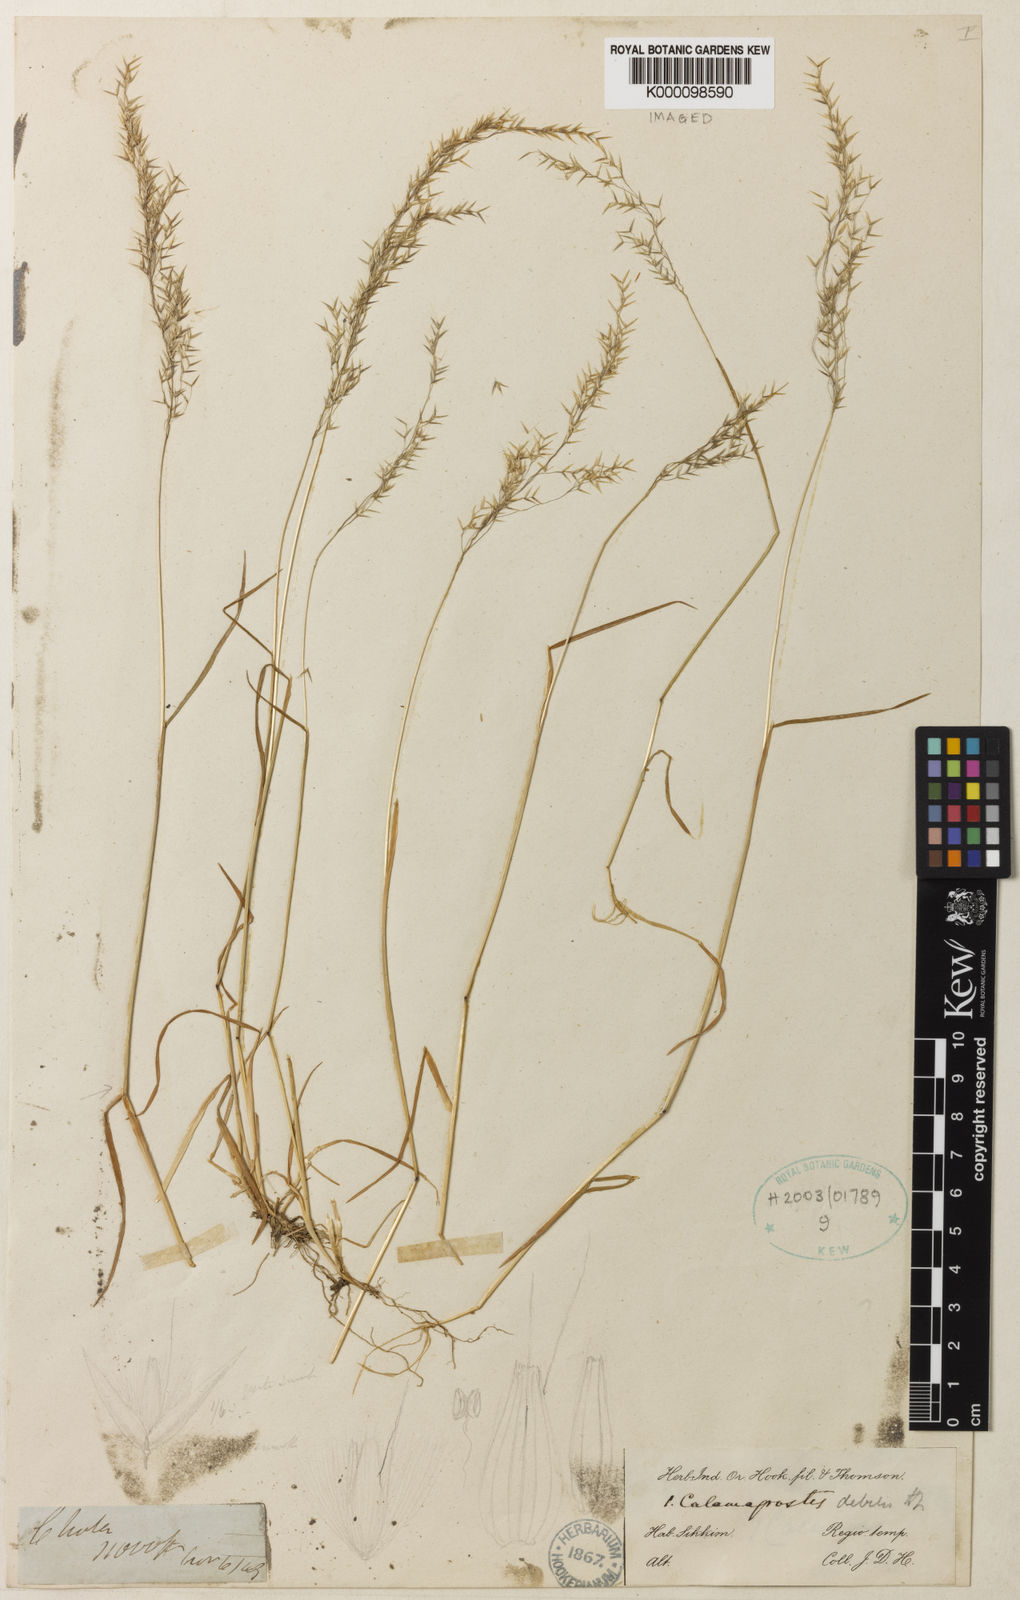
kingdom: Plantae
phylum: Tracheophyta
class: Liliopsida
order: Poales
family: Poaceae
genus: Calamagrostis
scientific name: Calamagrostis debilis
